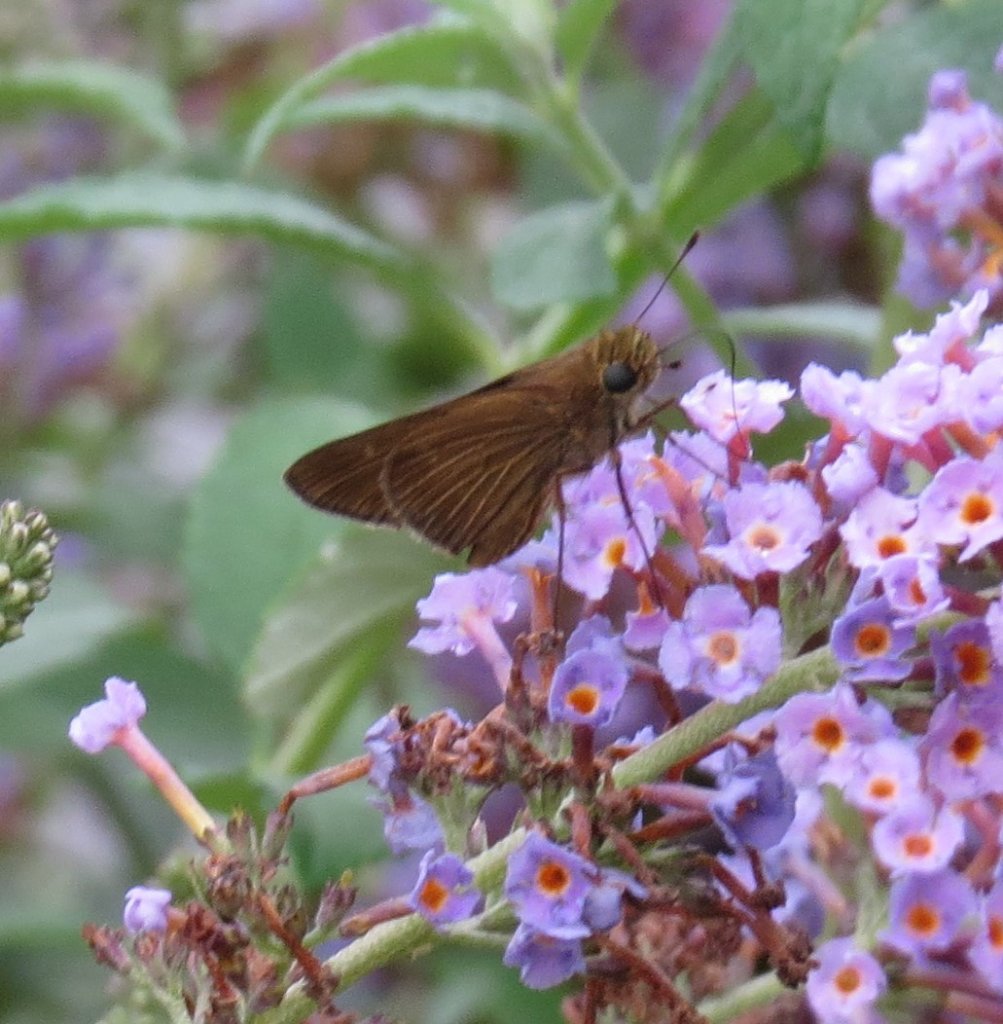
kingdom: Animalia
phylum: Arthropoda
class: Insecta
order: Lepidoptera
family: Hesperiidae
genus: Panoquina
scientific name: Panoquina ocola
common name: Ocola Skipper
